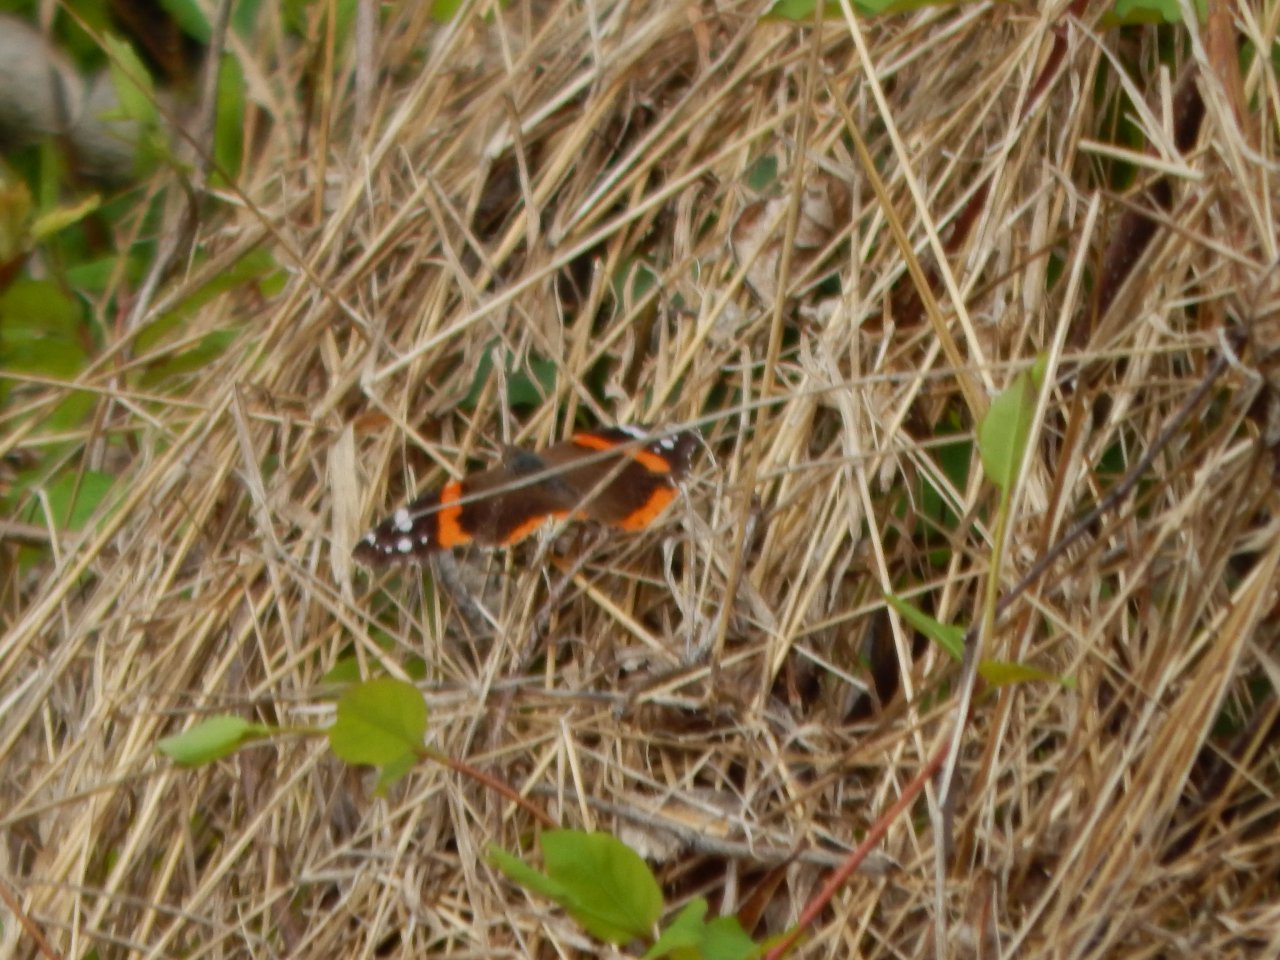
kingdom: Animalia
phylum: Arthropoda
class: Insecta
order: Lepidoptera
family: Nymphalidae
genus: Vanessa
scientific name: Vanessa atalanta
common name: Red Admiral
